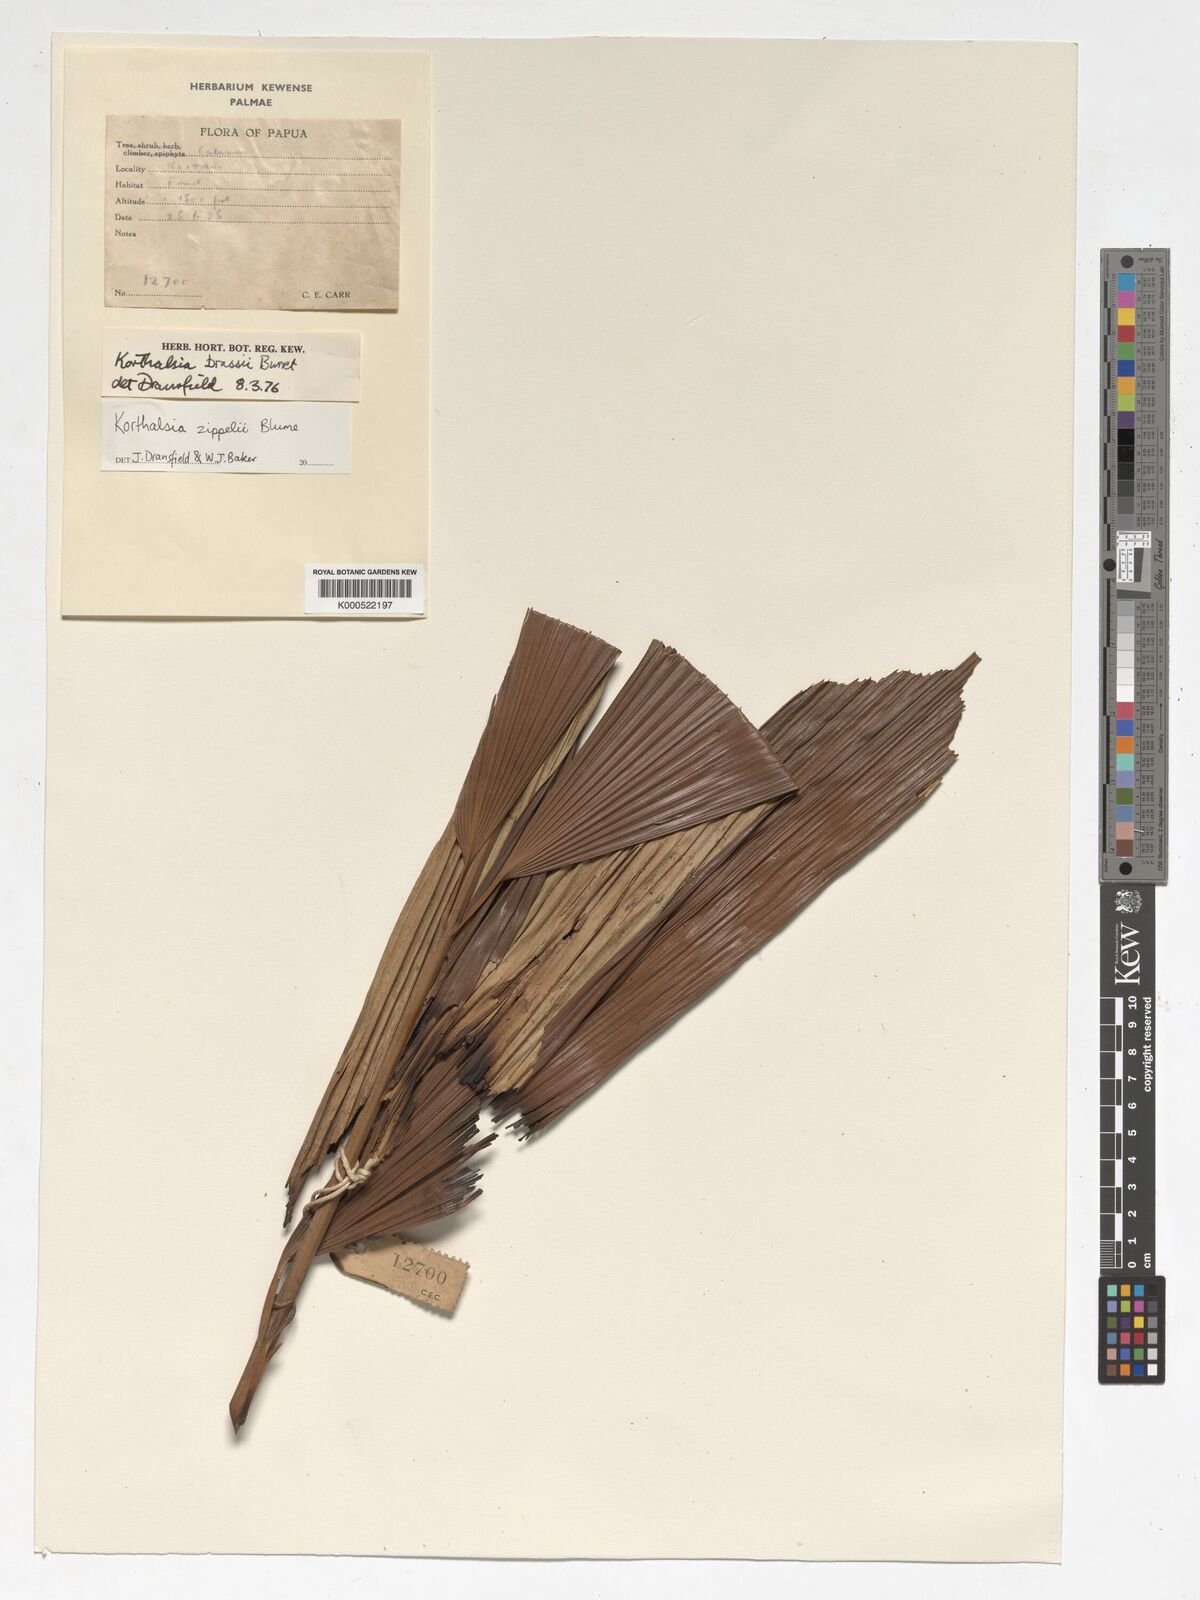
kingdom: Plantae
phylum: Tracheophyta
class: Liliopsida
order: Arecales
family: Arecaceae
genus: Korthalsia
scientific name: Korthalsia zippelii
